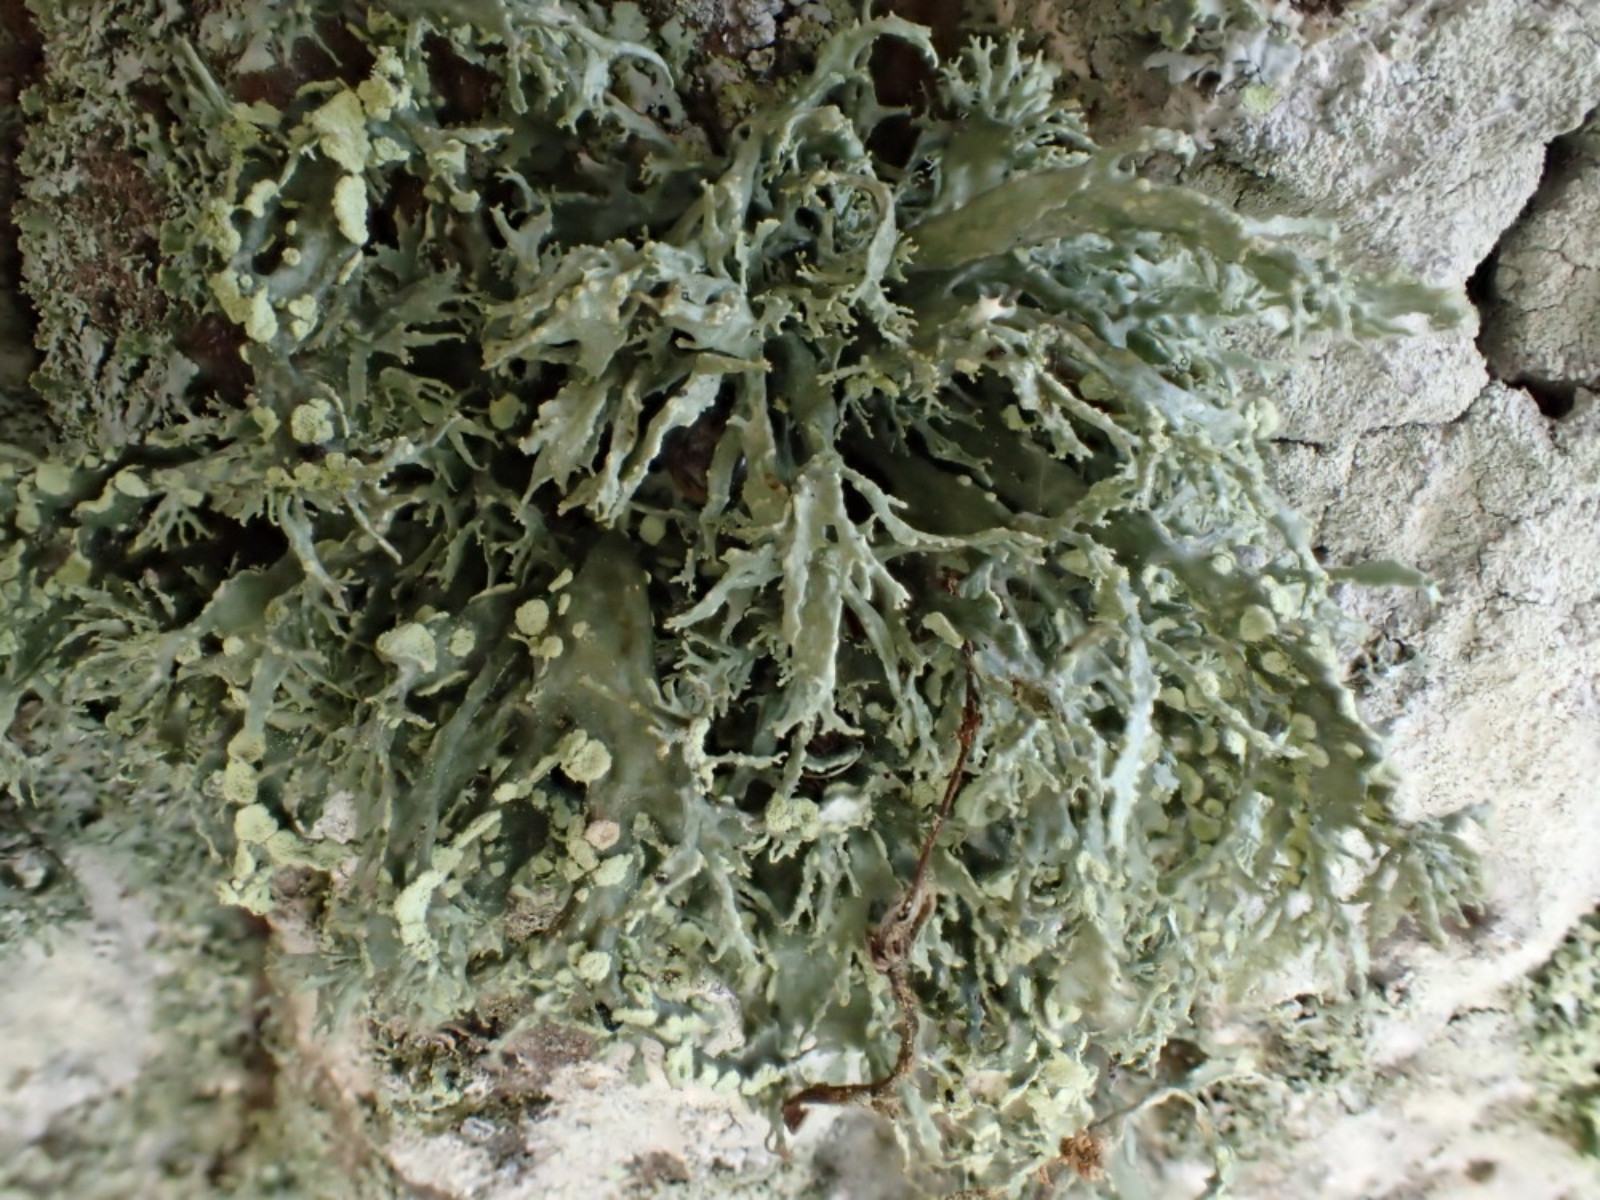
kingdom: Fungi
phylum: Ascomycota
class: Lecanoromycetes
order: Lecanorales
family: Ramalinaceae
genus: Ramalina
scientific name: Ramalina farinacea
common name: melet grenlav
